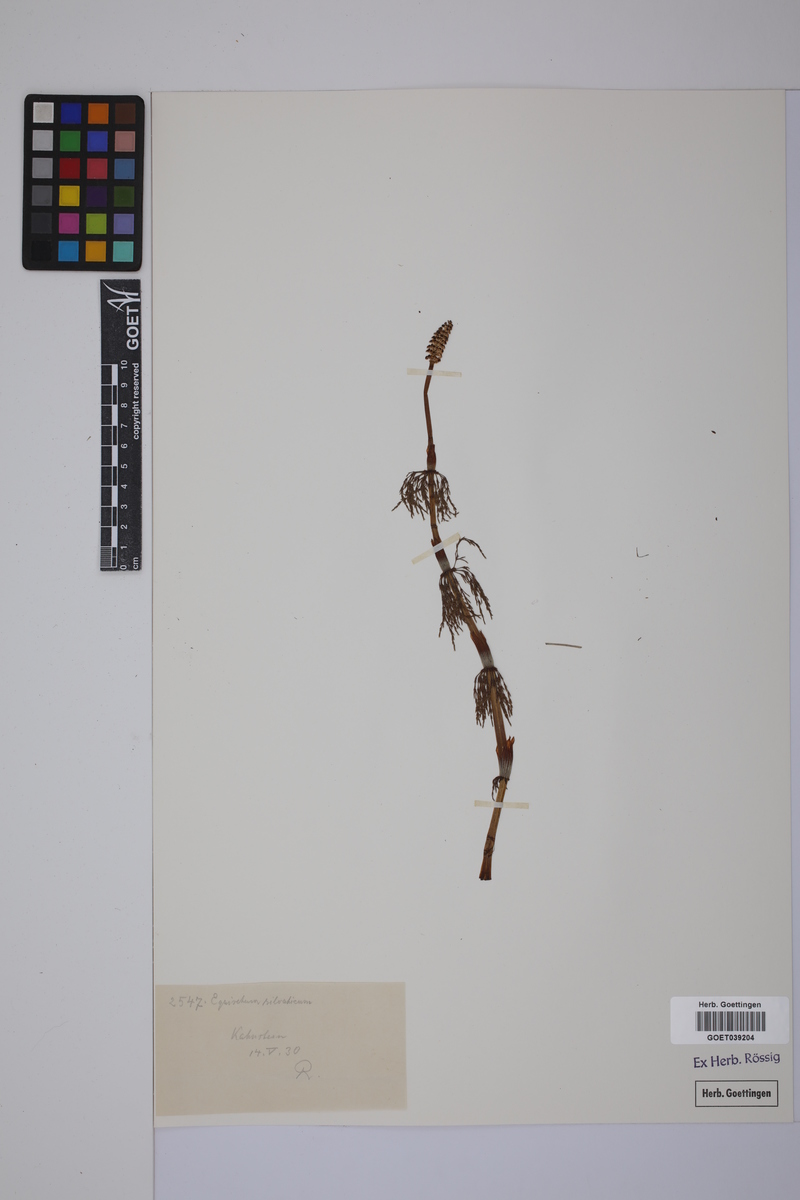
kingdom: Plantae
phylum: Tracheophyta
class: Polypodiopsida
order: Equisetales
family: Equisetaceae
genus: Equisetum
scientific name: Equisetum sylvaticum
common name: Wood horsetail
